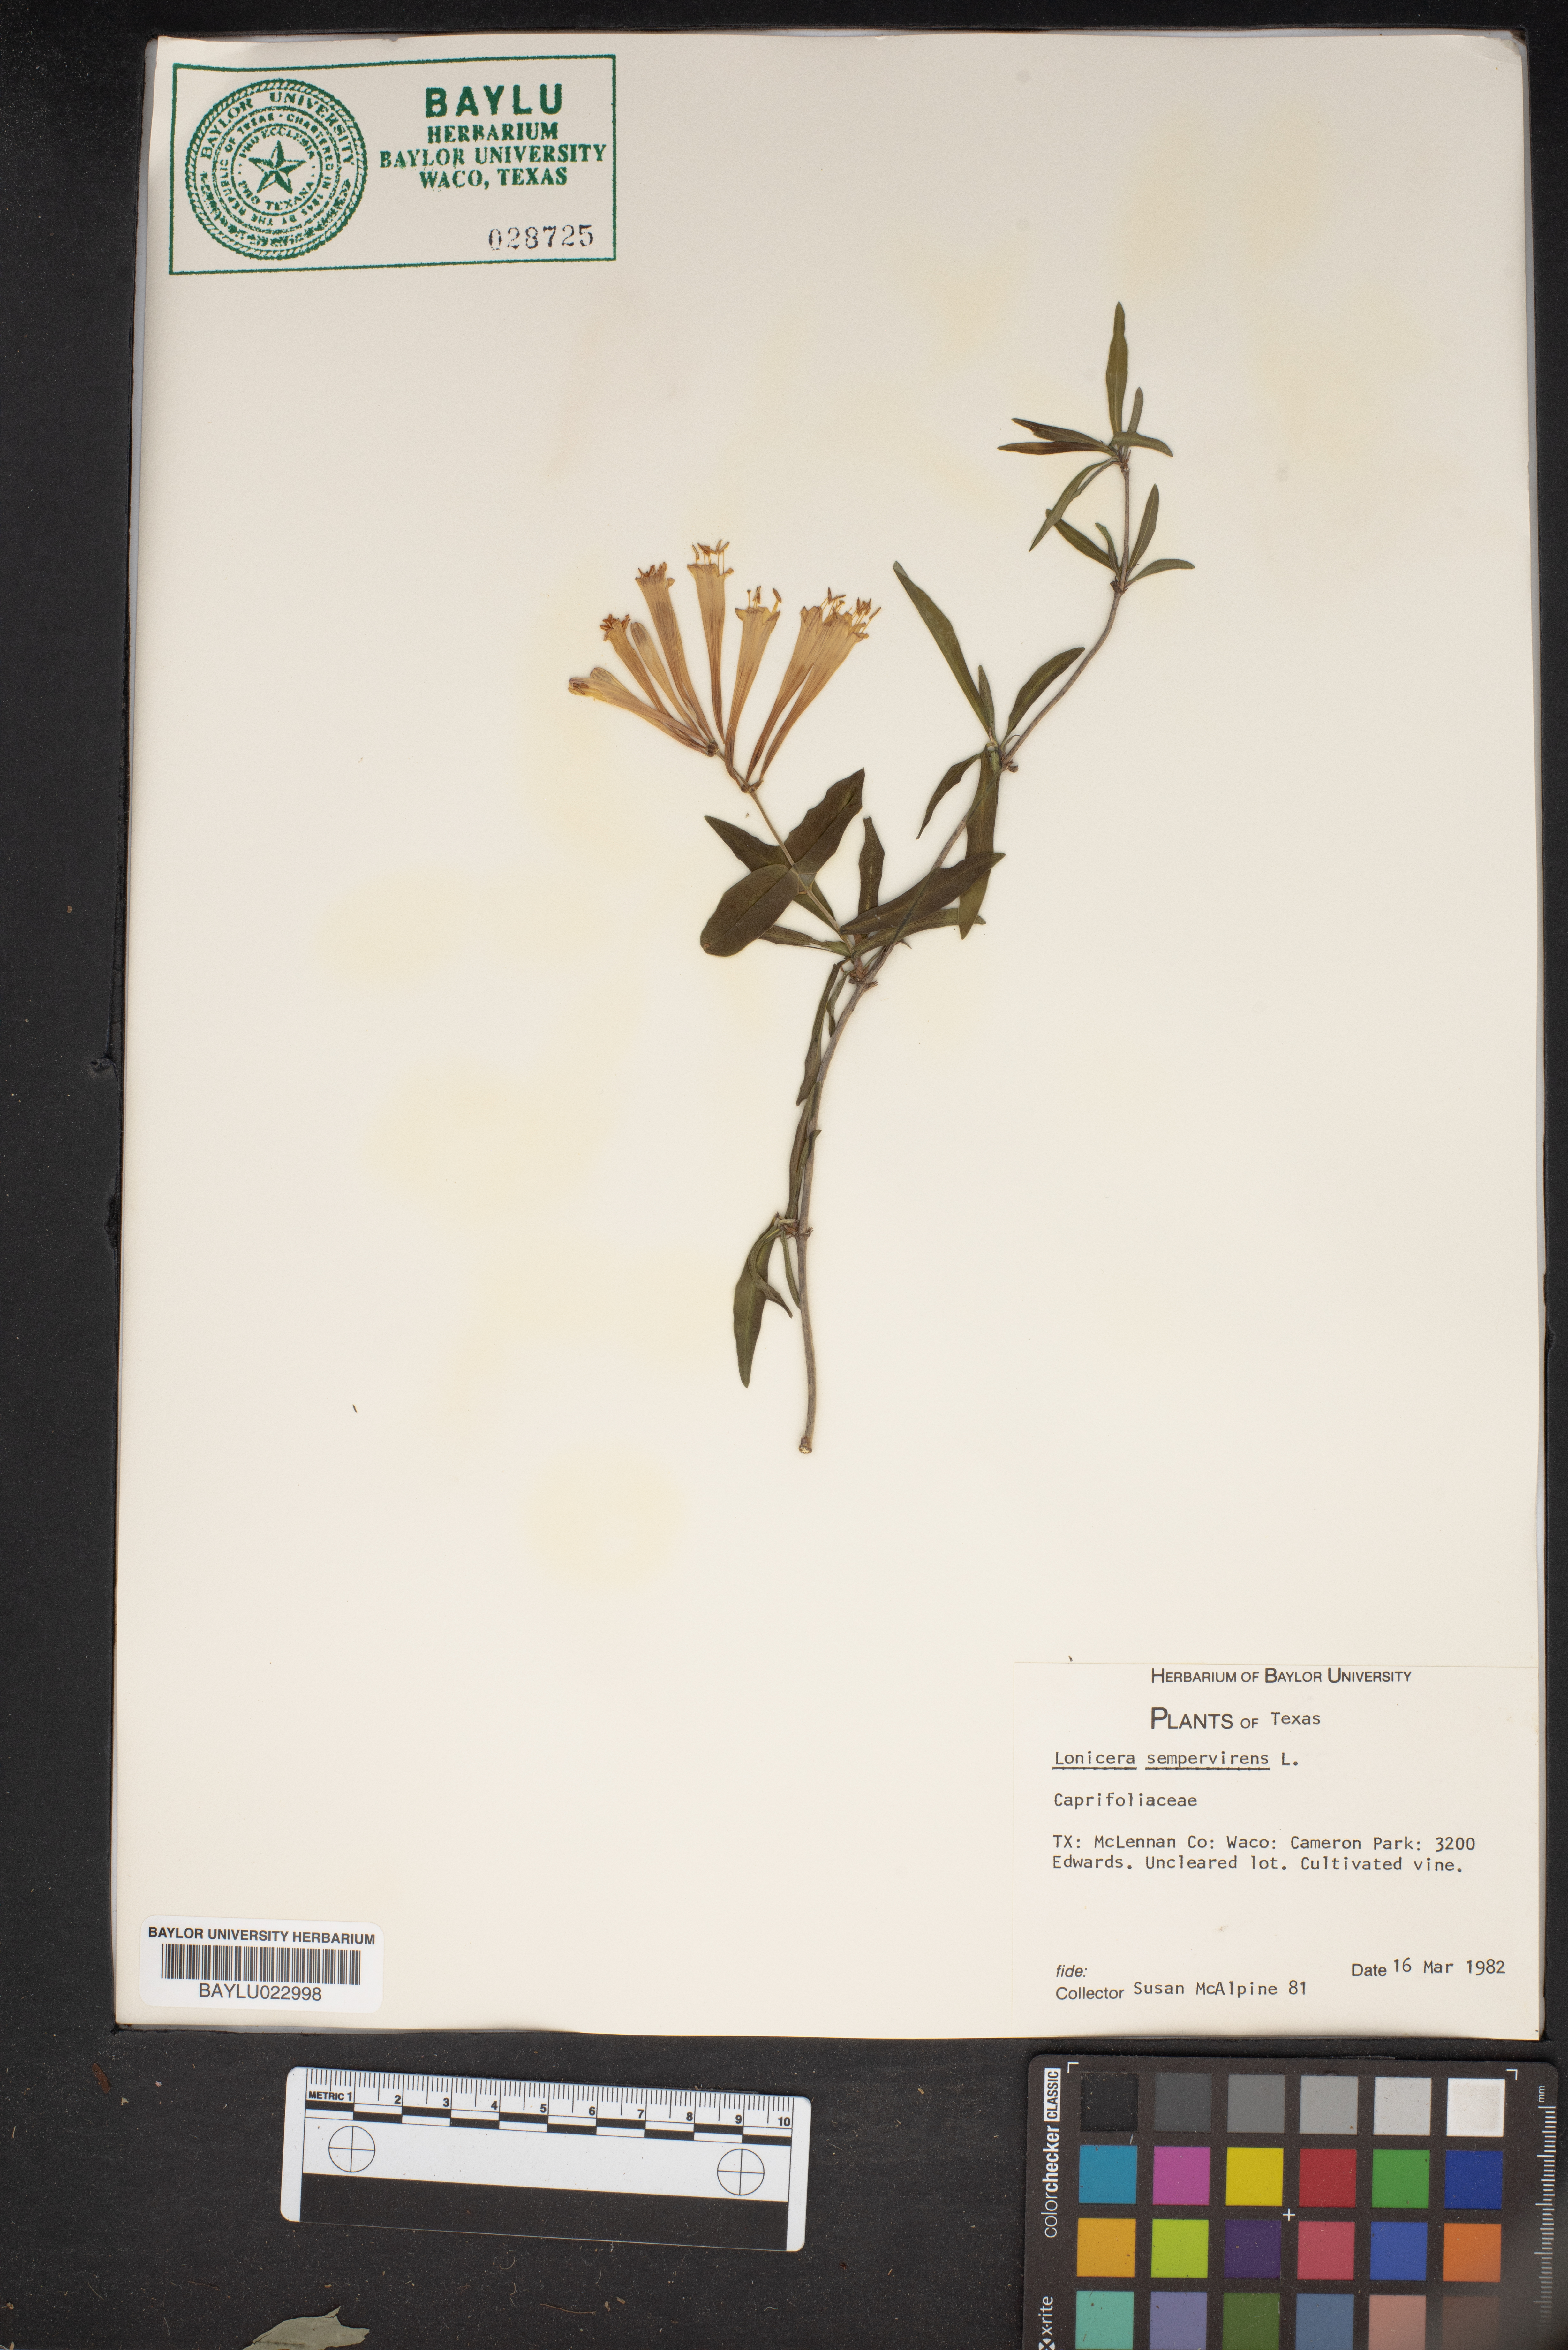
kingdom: Plantae
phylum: Tracheophyta
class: Magnoliopsida
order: Dipsacales
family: Caprifoliaceae
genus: Lonicera
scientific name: Lonicera sempervirens
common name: Coral honeysuckle
